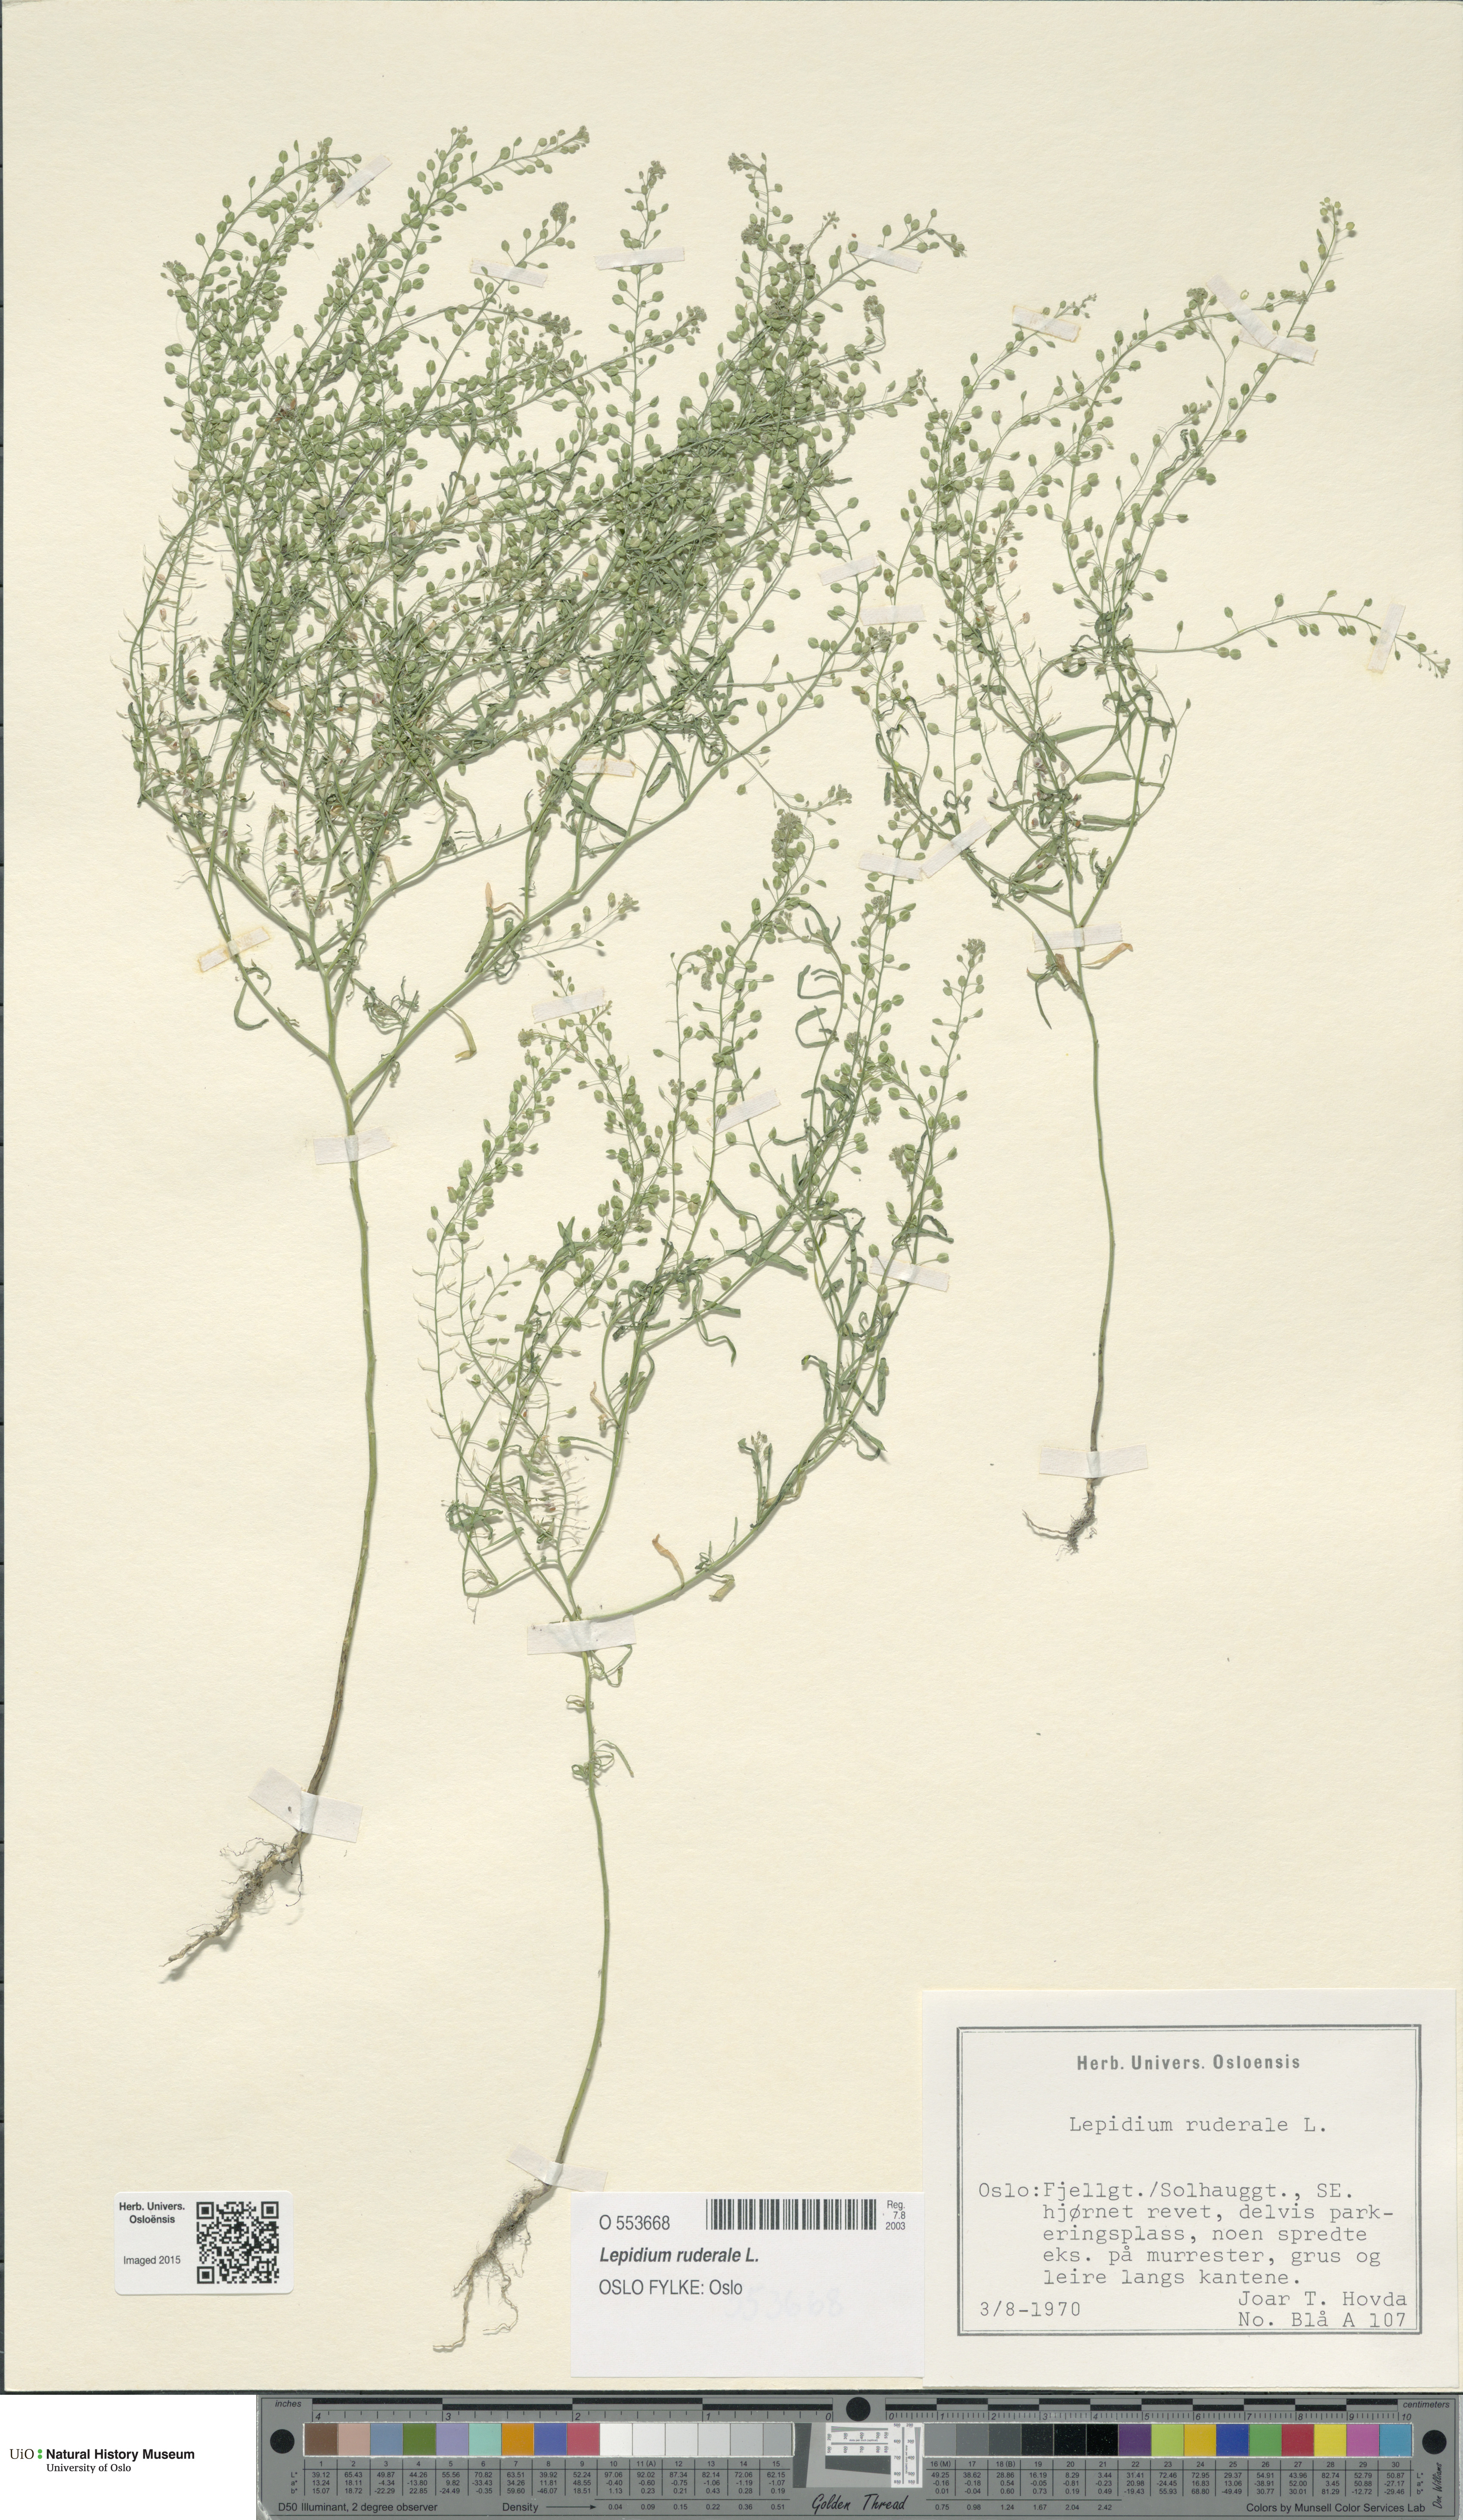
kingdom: Plantae
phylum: Tracheophyta
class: Magnoliopsida
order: Brassicales
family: Brassicaceae
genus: Lepidium
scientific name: Lepidium ruderale
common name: Narrow-leaved pepperwort
